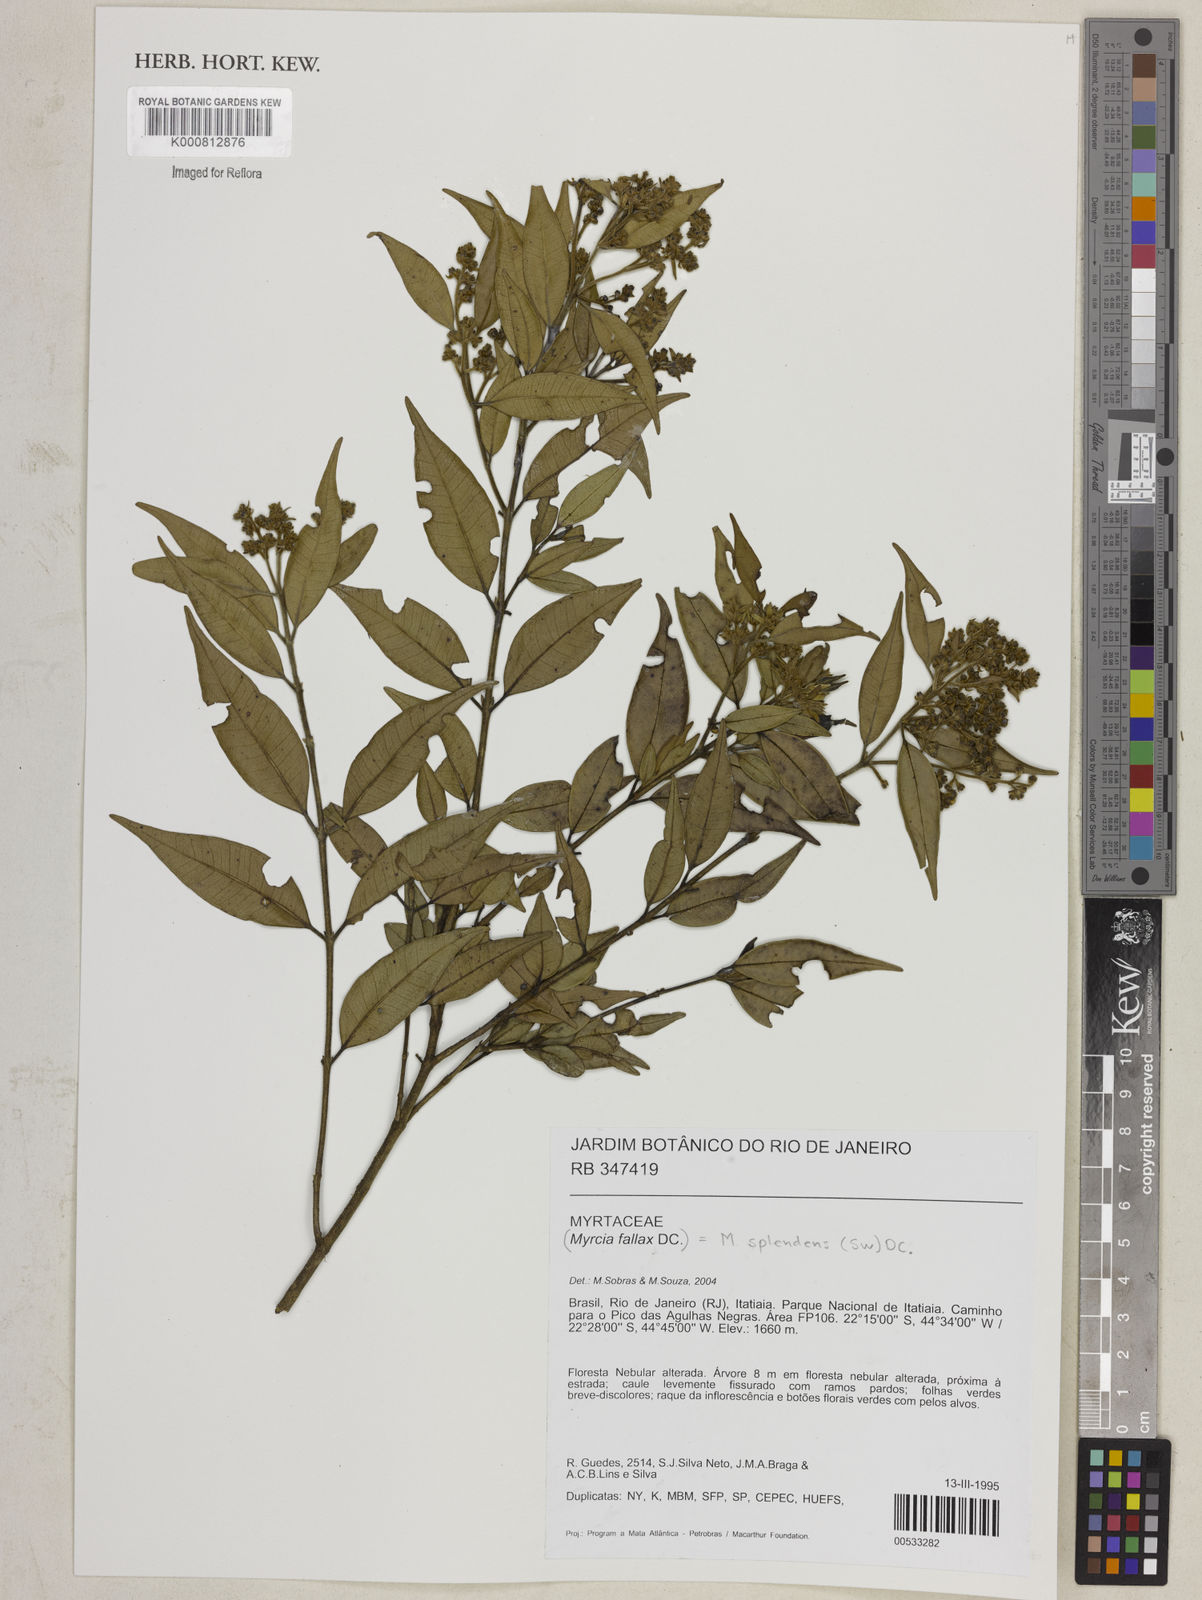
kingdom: Plantae
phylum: Tracheophyta
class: Magnoliopsida
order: Myrtales
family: Myrtaceae
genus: Myrcia
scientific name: Myrcia splendens
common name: Surinam cherry
